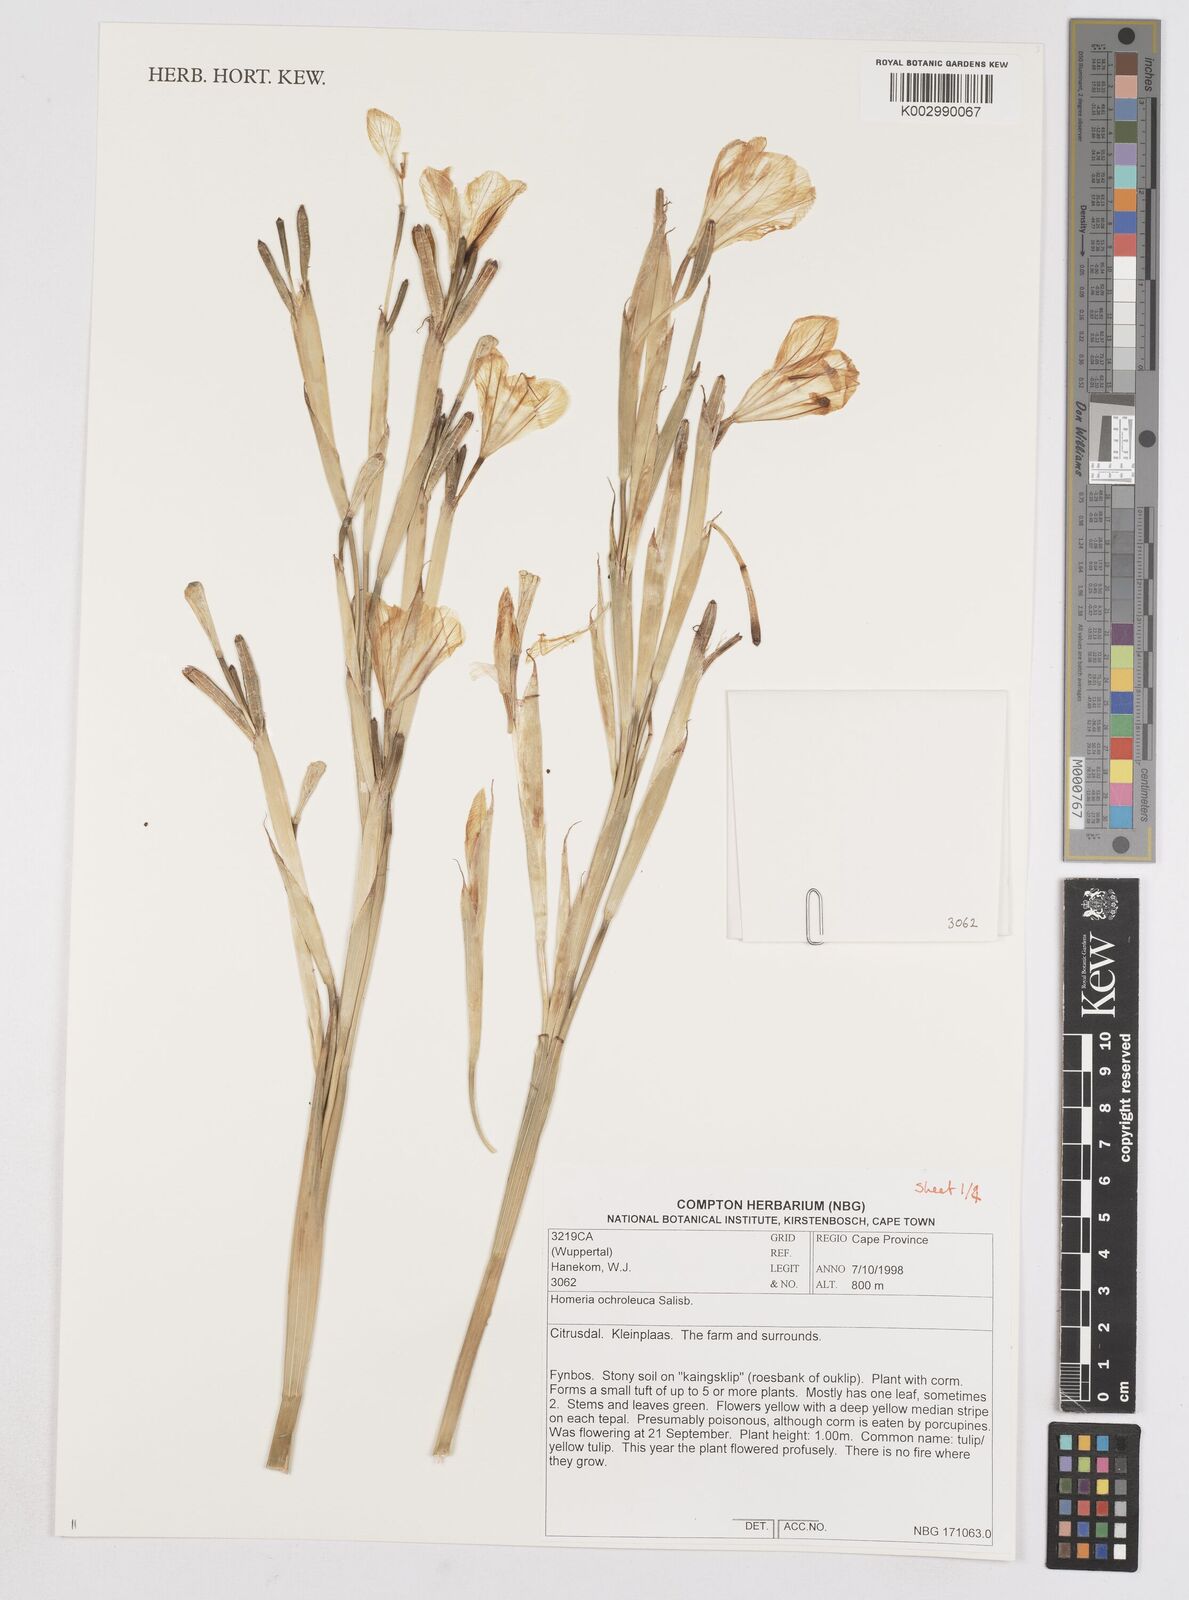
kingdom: Plantae
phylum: Tracheophyta
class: Liliopsida
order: Asparagales
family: Iridaceae
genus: Moraea
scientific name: Moraea ochroleuca
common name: Red tulp
